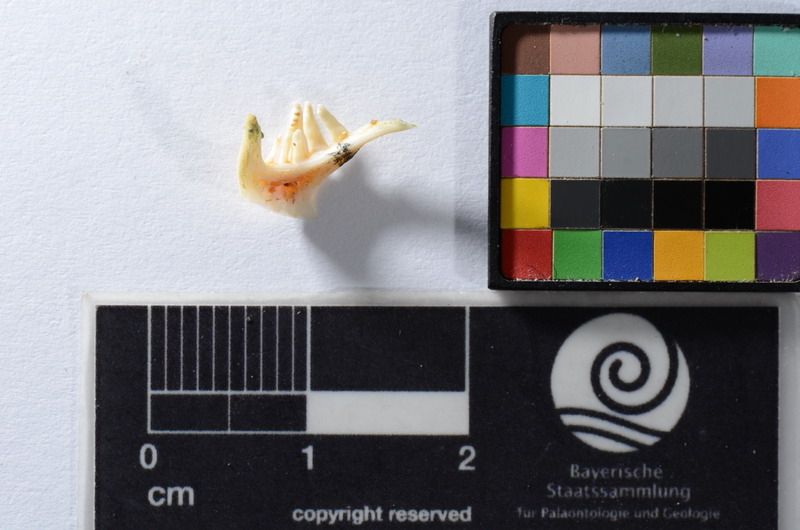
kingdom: Animalia
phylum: Chordata
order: Cypriniformes
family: Cyprinidae
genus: Rutilus
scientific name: Rutilus rutilus
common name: Roach
